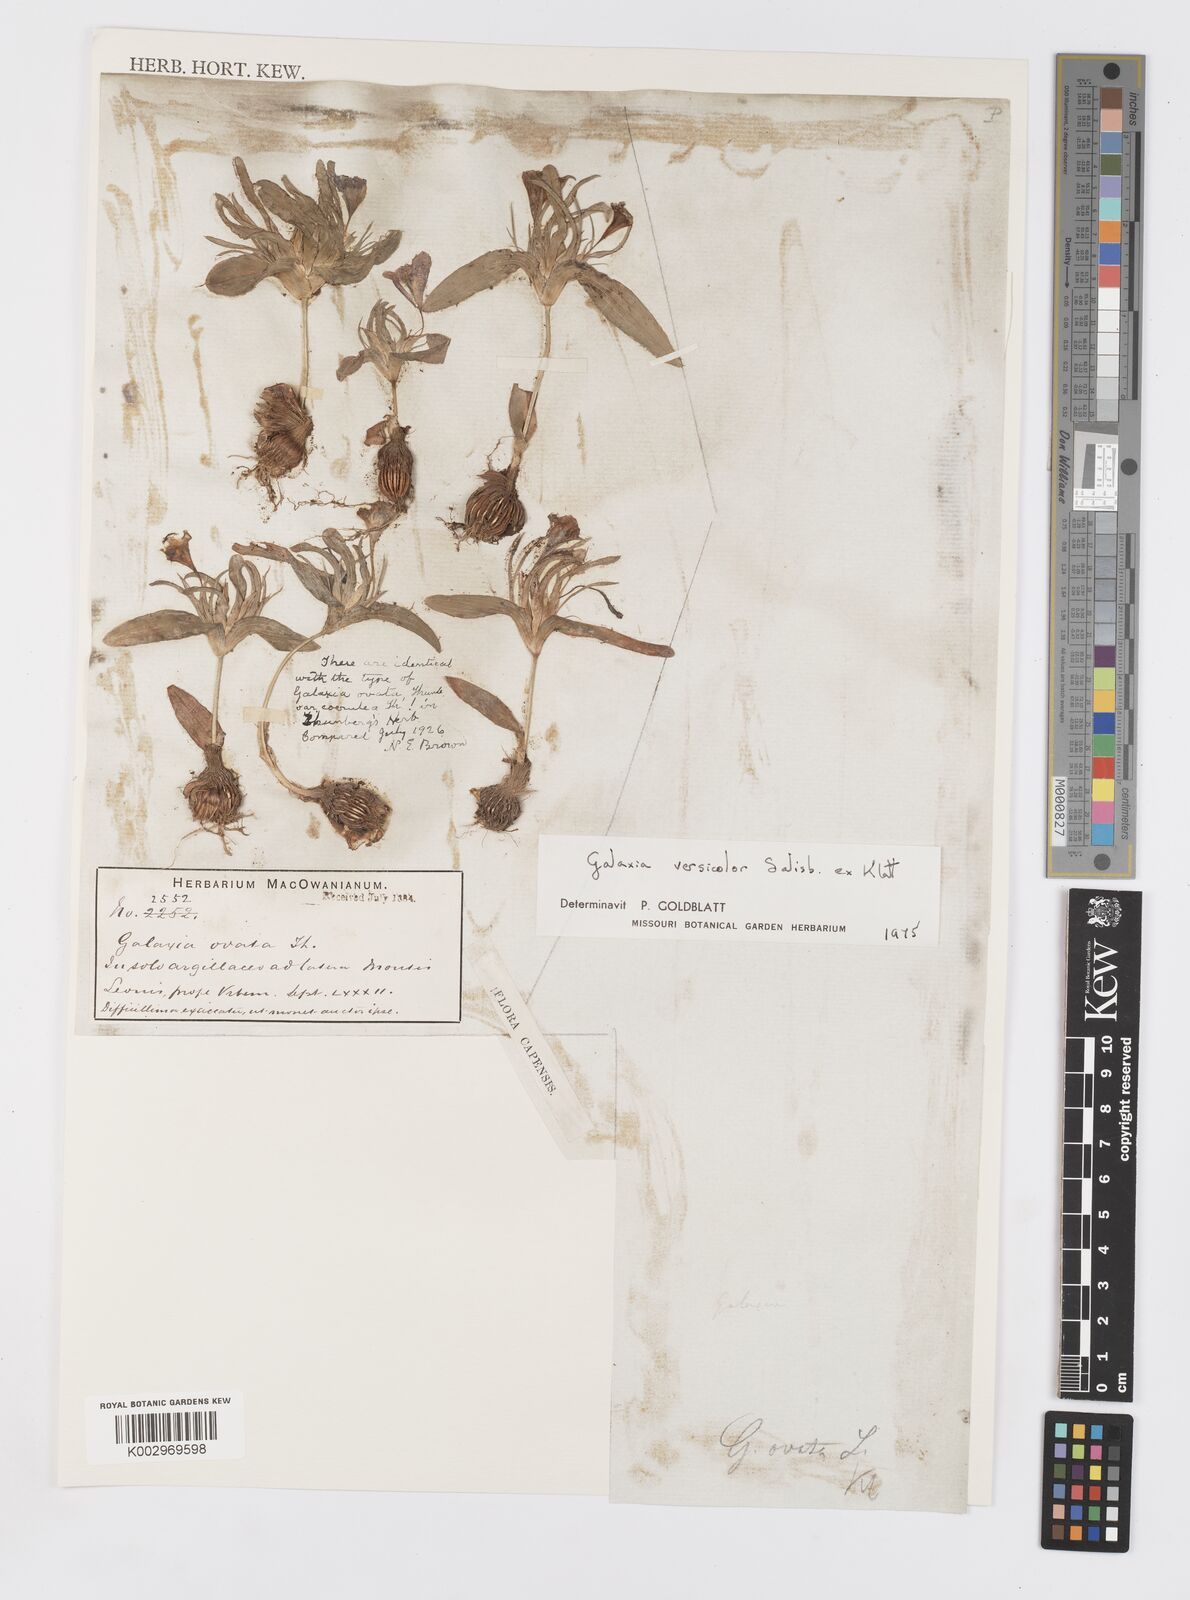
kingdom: Plantae
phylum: Tracheophyta
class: Liliopsida
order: Asparagales
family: Iridaceae
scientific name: Iridaceae
